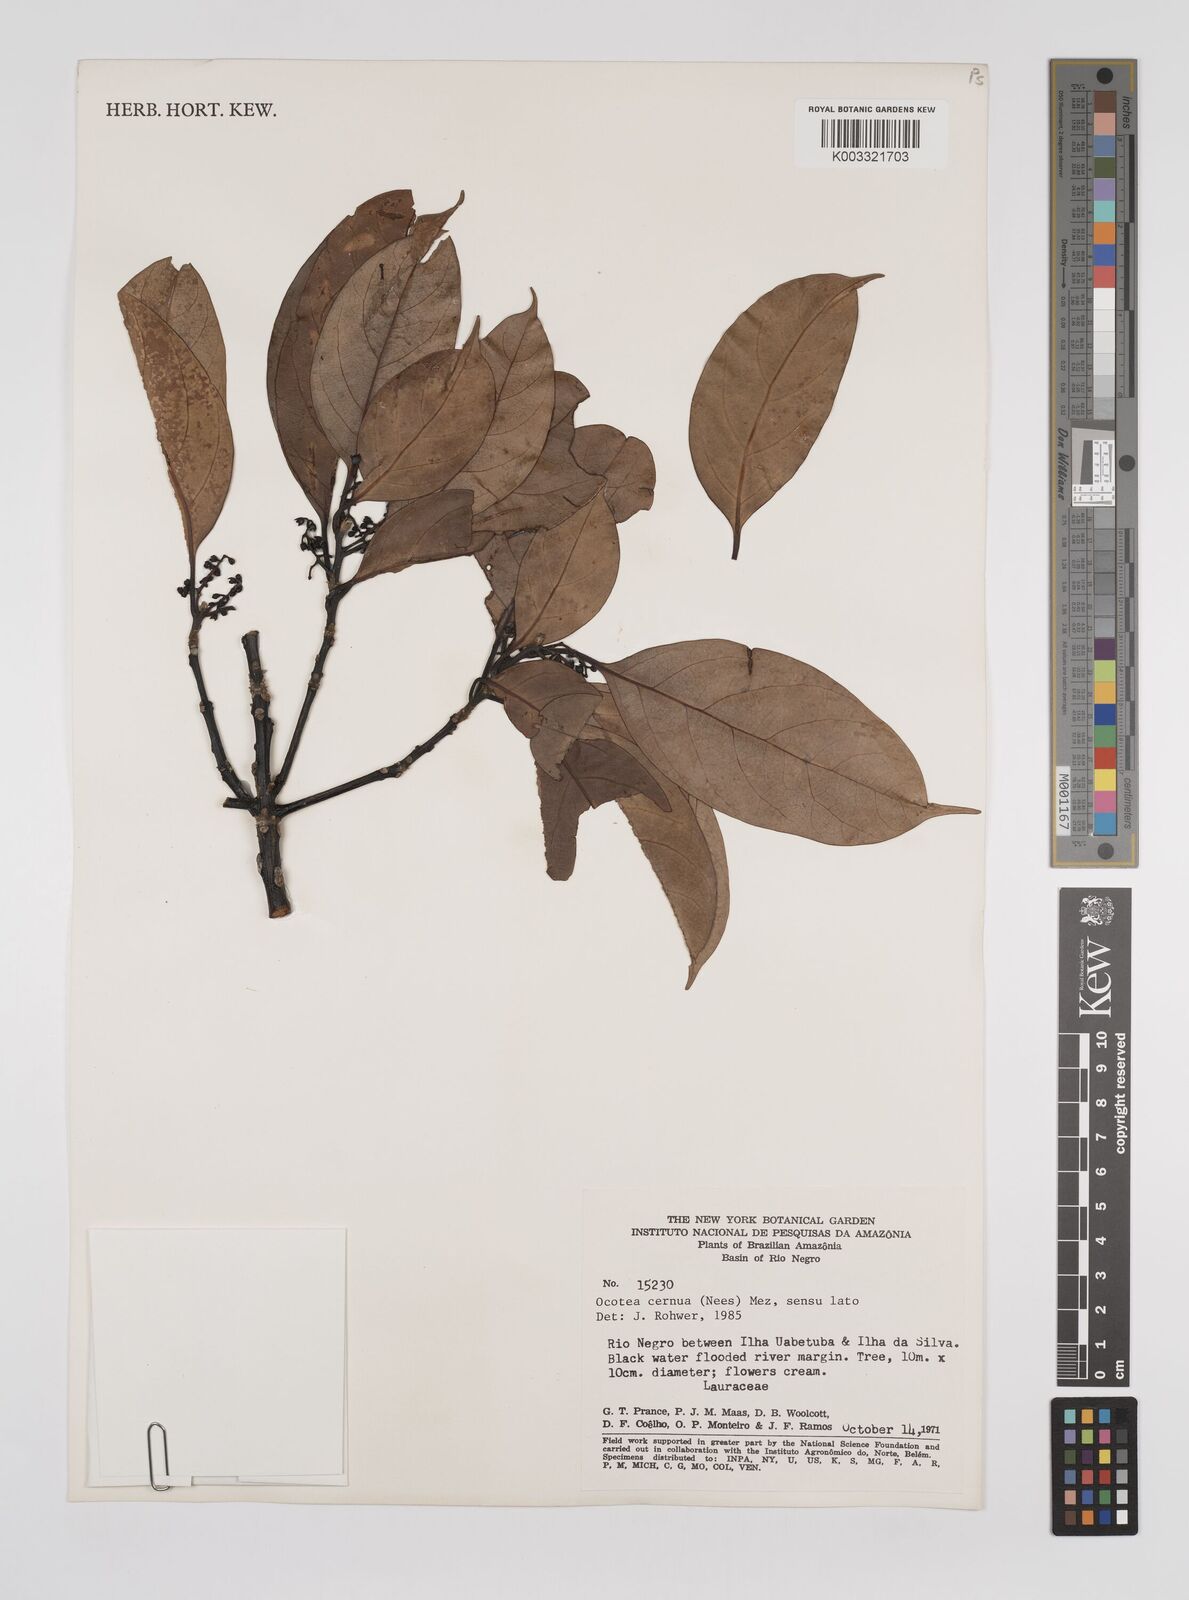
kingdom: Plantae
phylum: Tracheophyta
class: Magnoliopsida
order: Laurales
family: Lauraceae
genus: Ocotea
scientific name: Ocotea leptobotra
